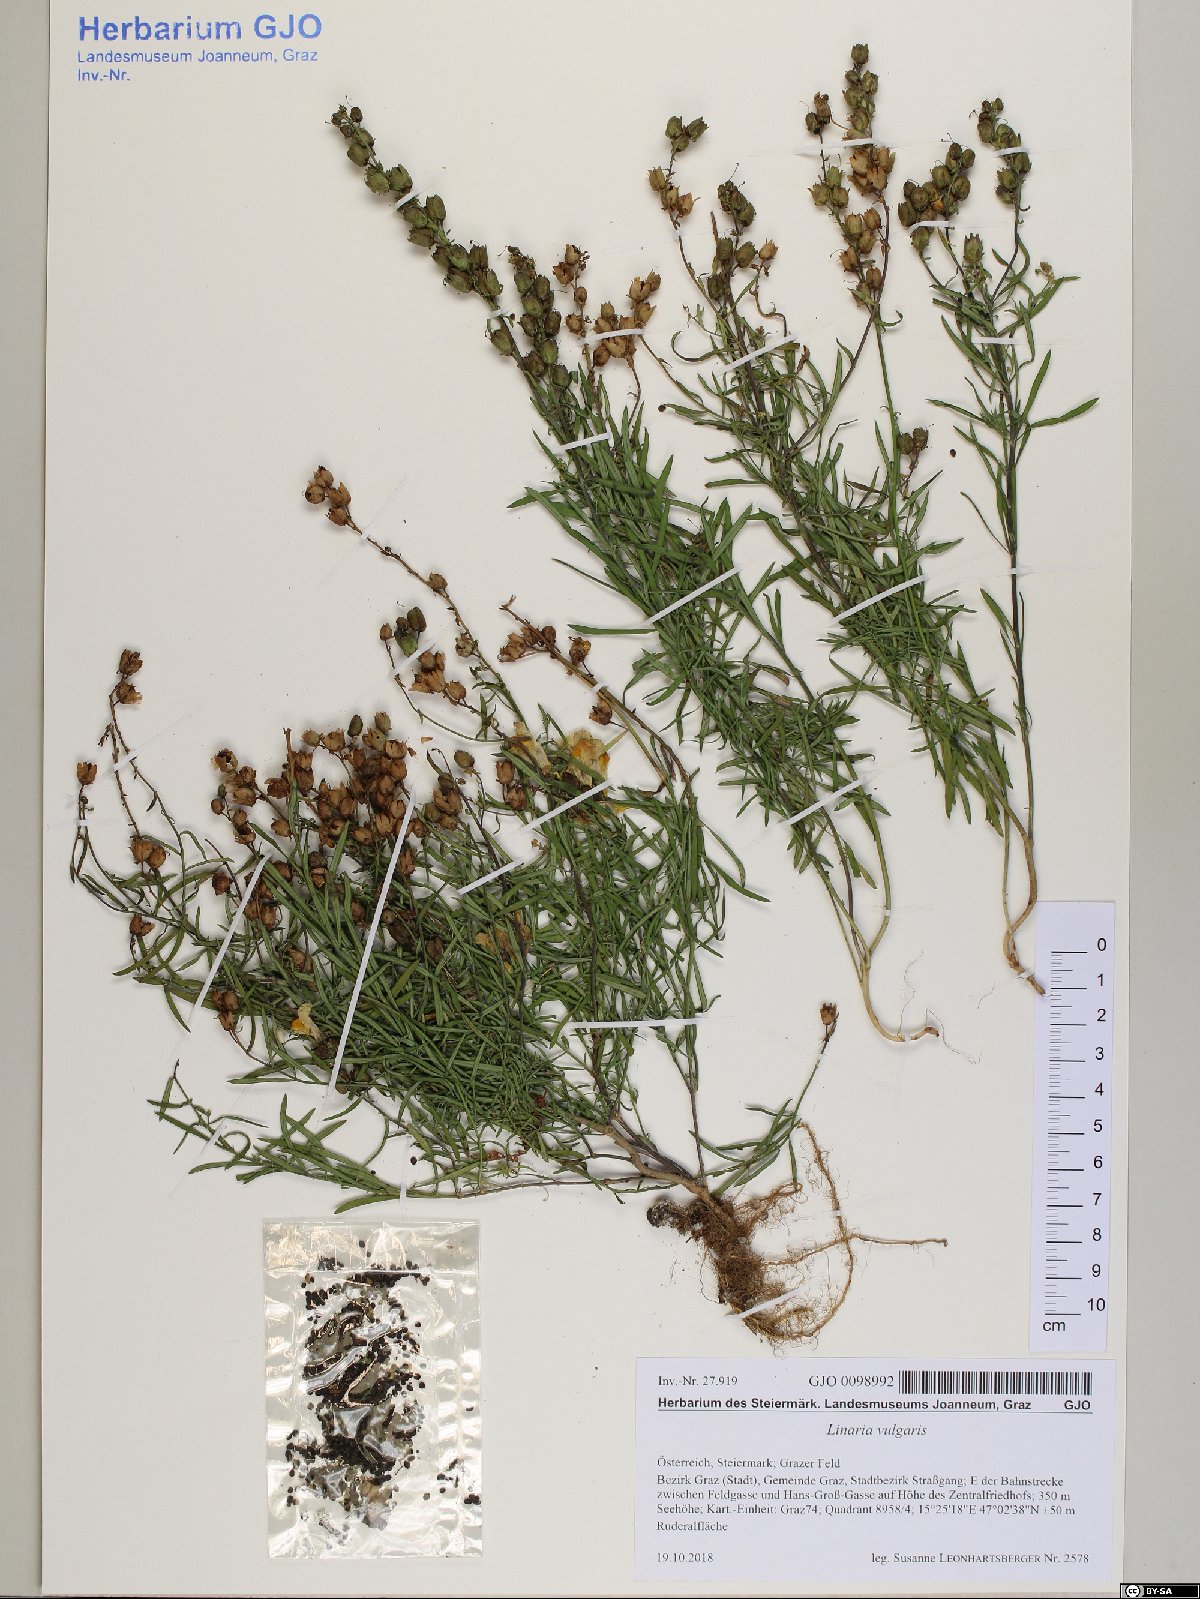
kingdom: Plantae
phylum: Tracheophyta
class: Magnoliopsida
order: Lamiales
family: Plantaginaceae
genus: Linaria
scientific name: Linaria vulgaris
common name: Butter and eggs
